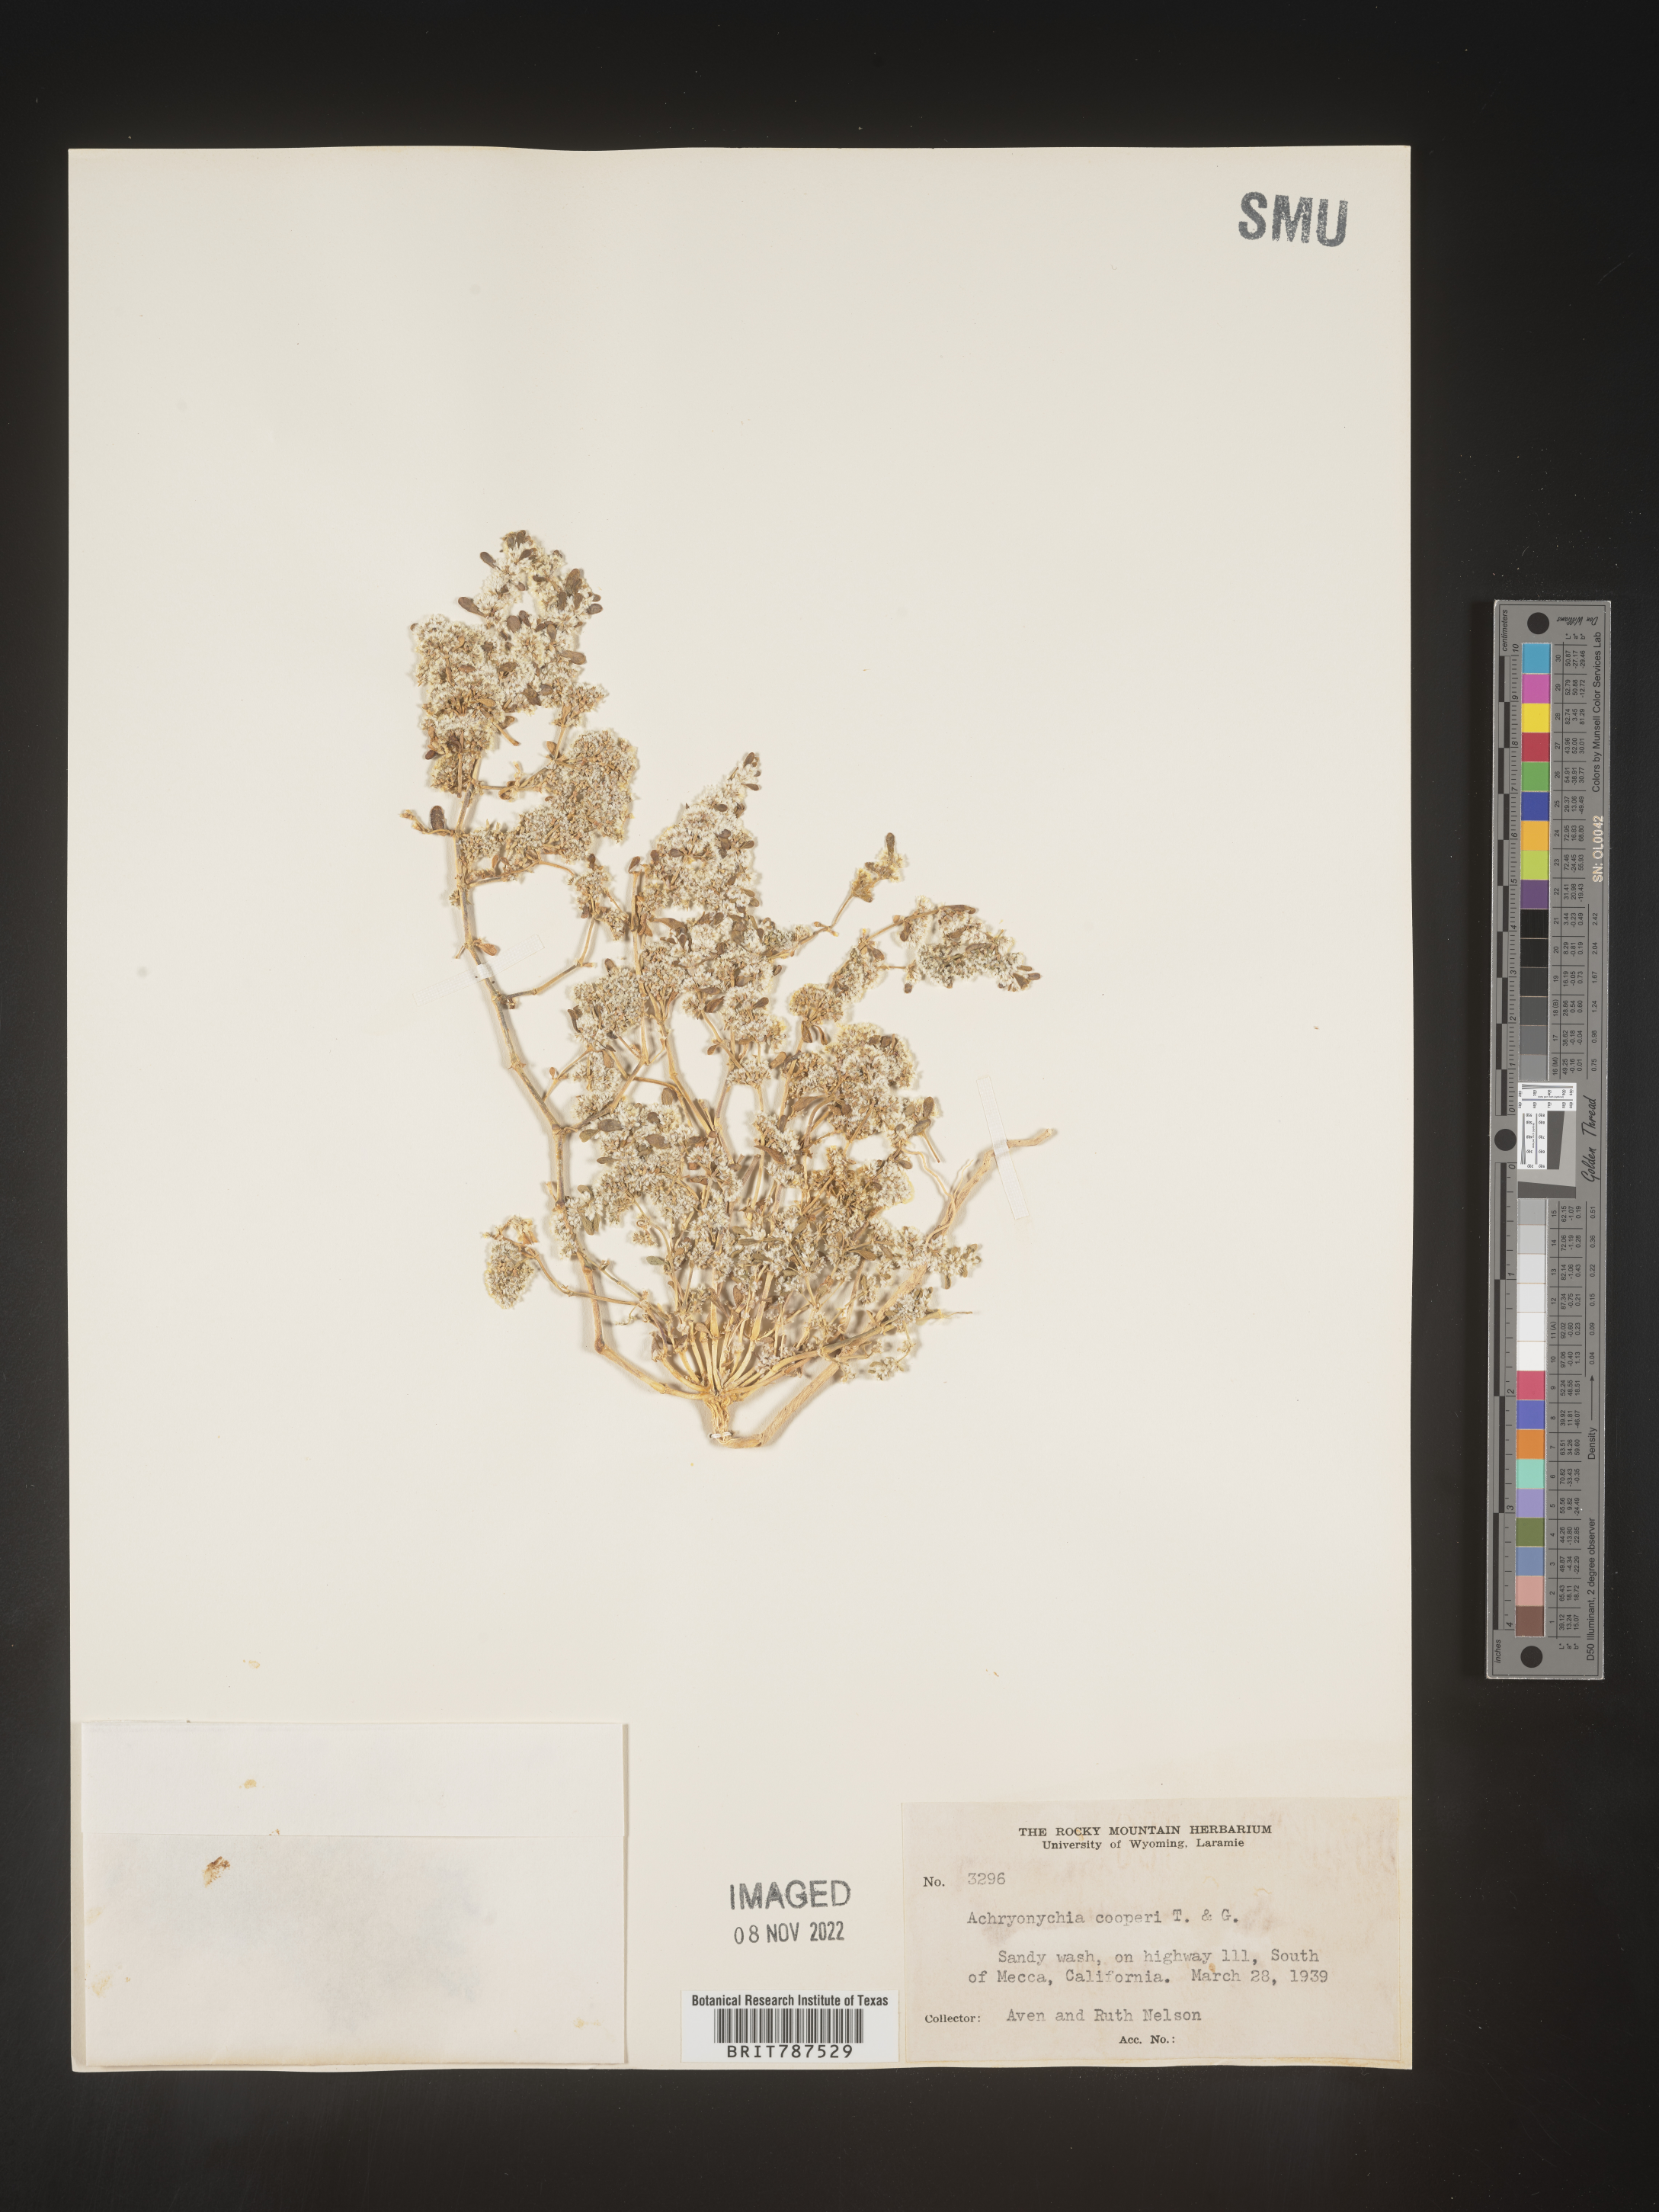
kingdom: Plantae
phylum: Tracheophyta
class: Magnoliopsida
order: Caryophyllales
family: Caryophyllaceae
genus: Achyronychia
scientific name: Achyronychia
